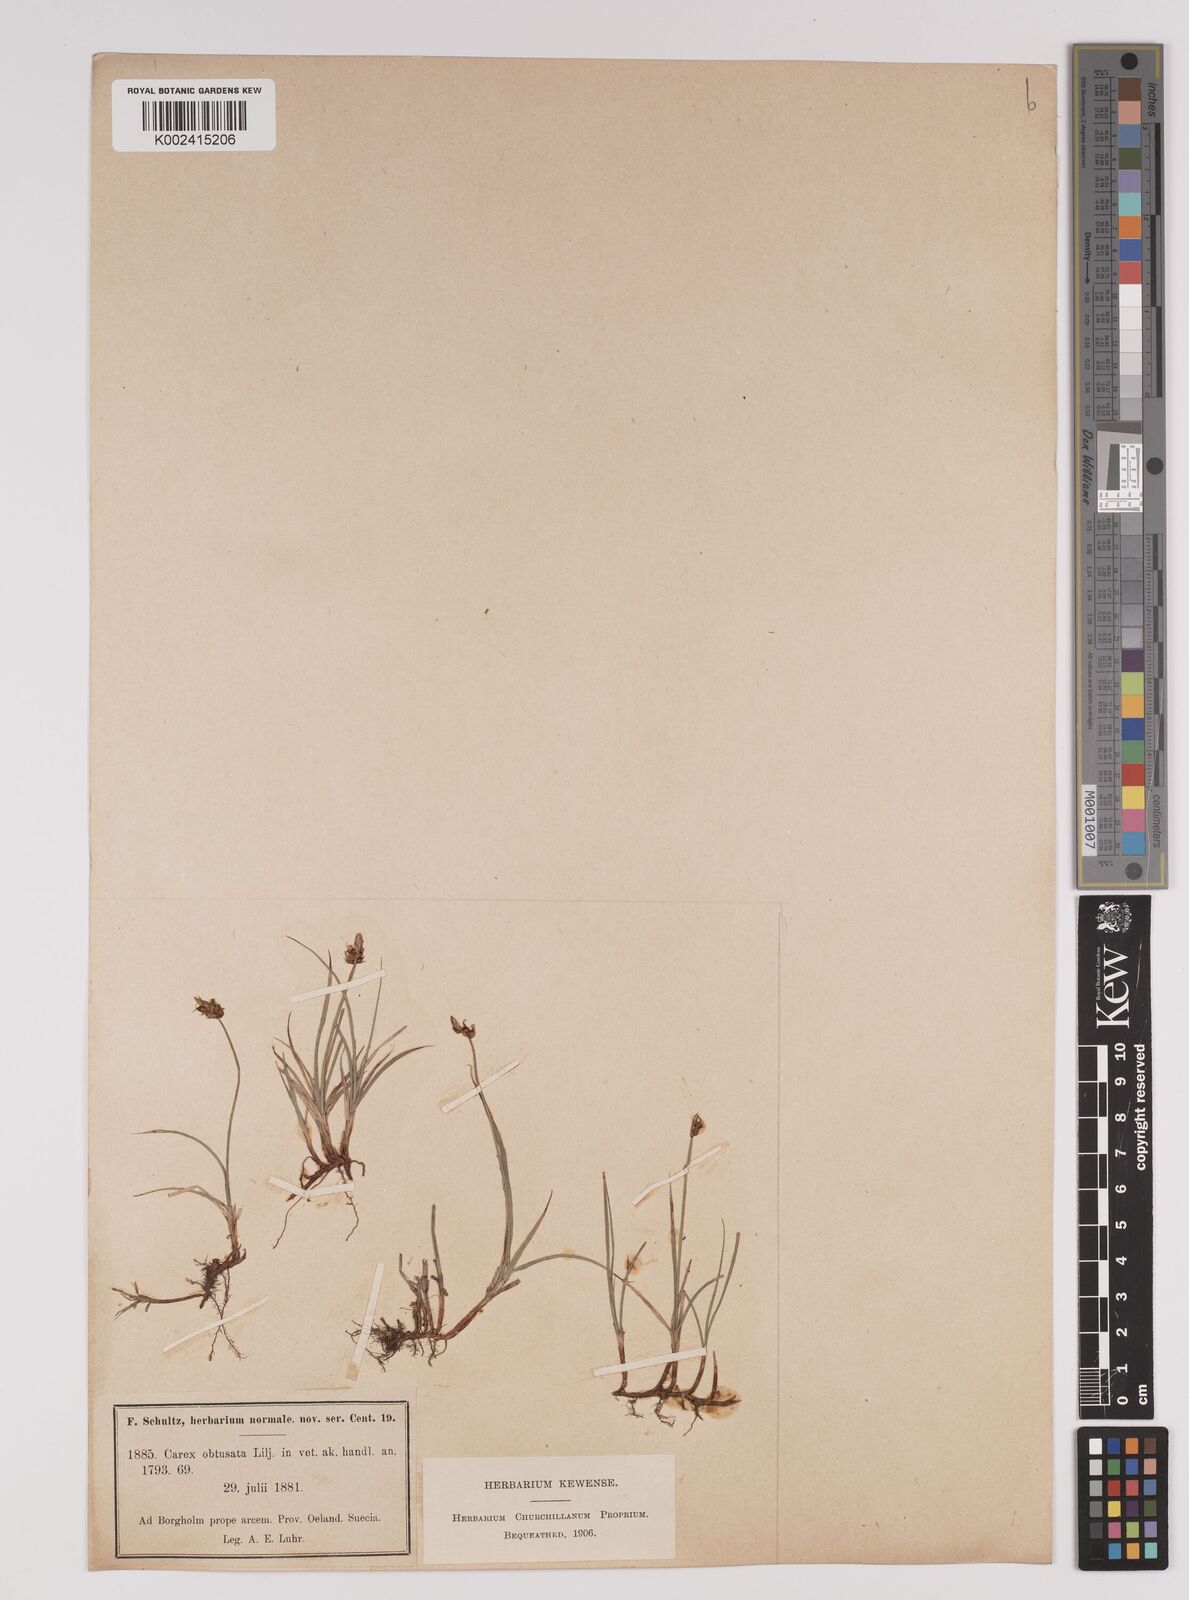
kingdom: Plantae
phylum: Tracheophyta
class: Liliopsida
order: Poales
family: Cyperaceae
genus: Carex
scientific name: Carex obtusata
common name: Blunt sedge
